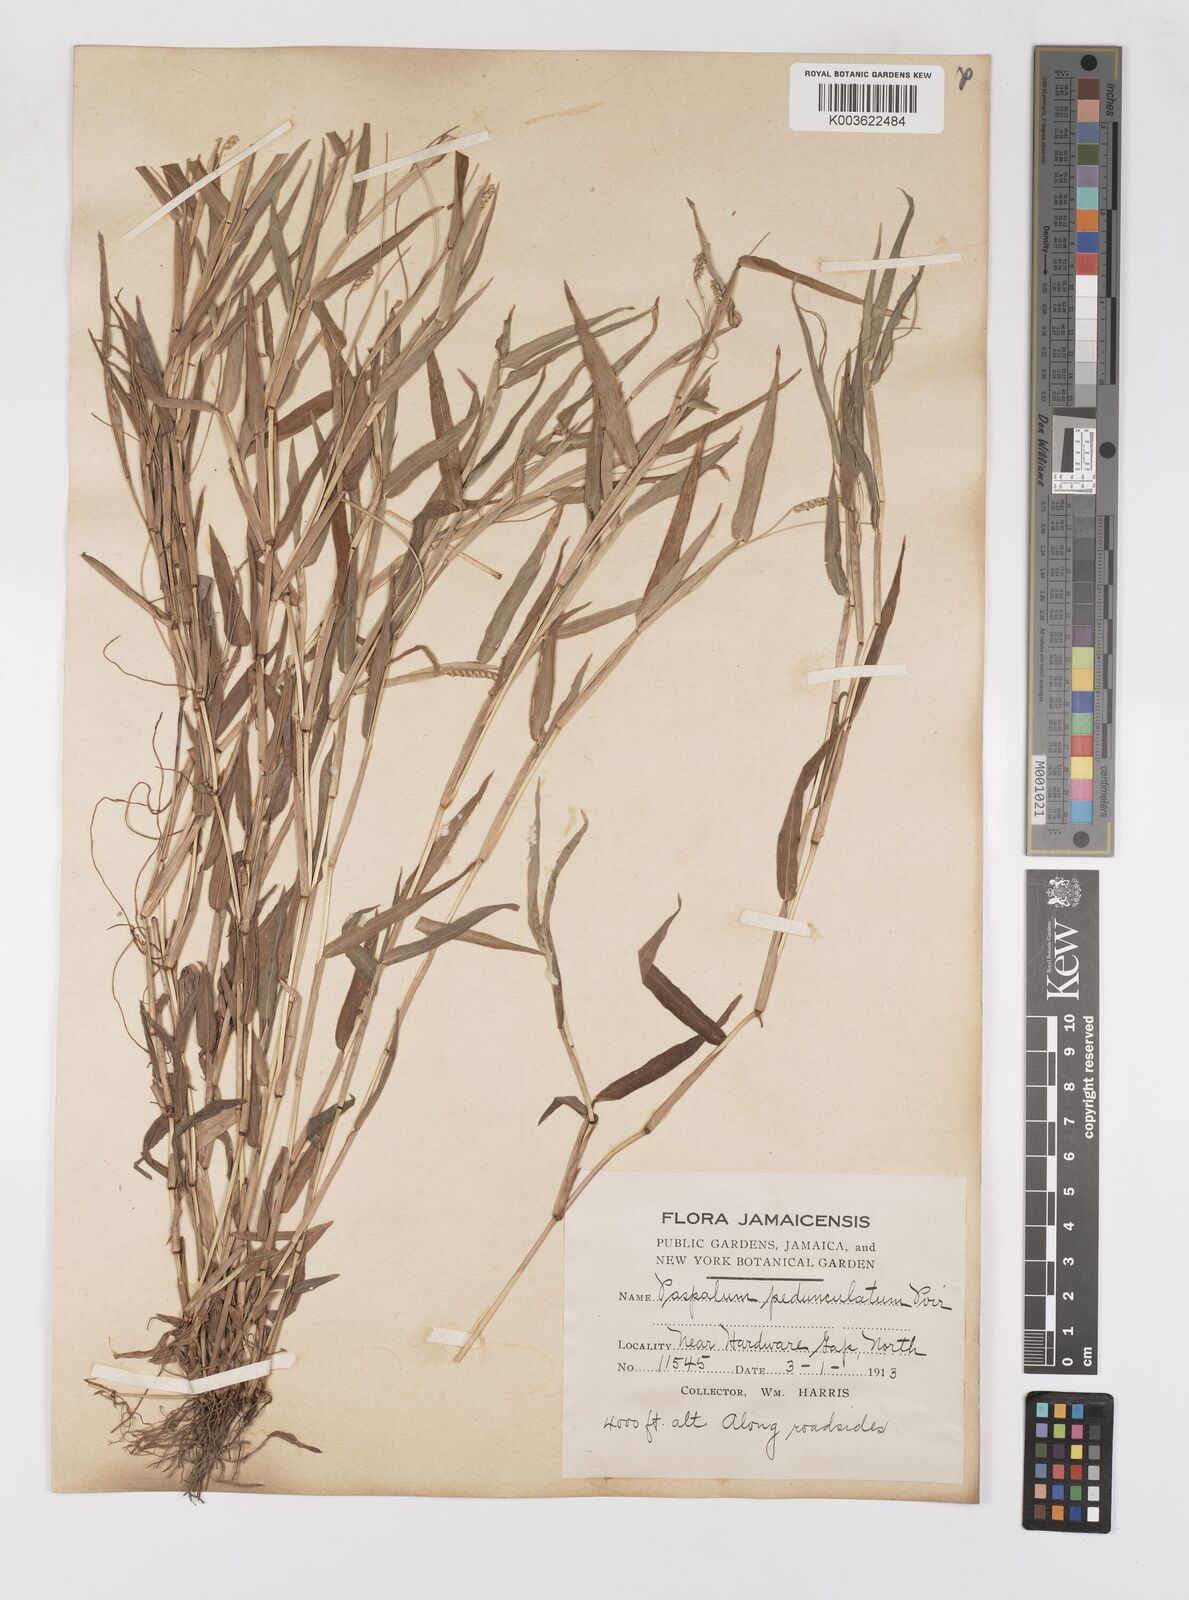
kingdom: Plantae
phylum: Tracheophyta
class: Liliopsida
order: Poales
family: Poaceae
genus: Paspalum
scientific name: Paspalum decumbens
